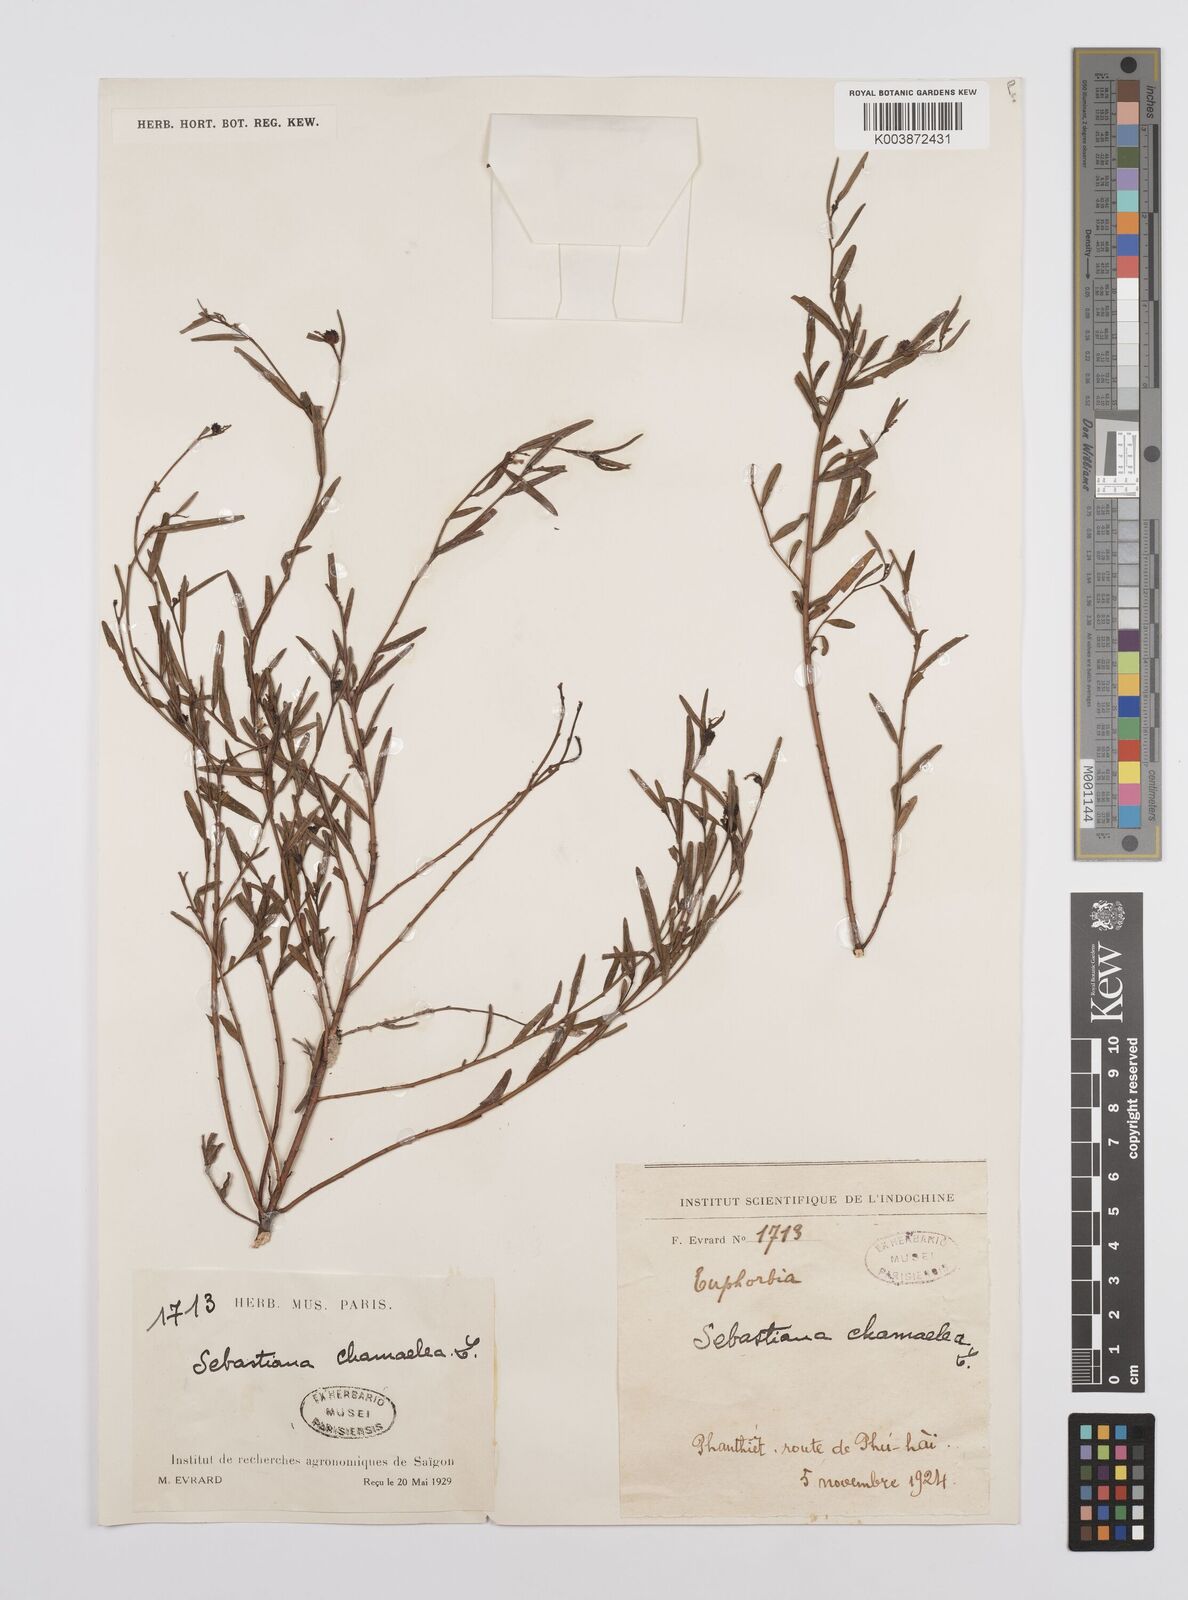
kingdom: Plantae
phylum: Tracheophyta
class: Magnoliopsida
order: Malpighiales
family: Euphorbiaceae
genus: Microstachys
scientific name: Microstachys chamaelea
